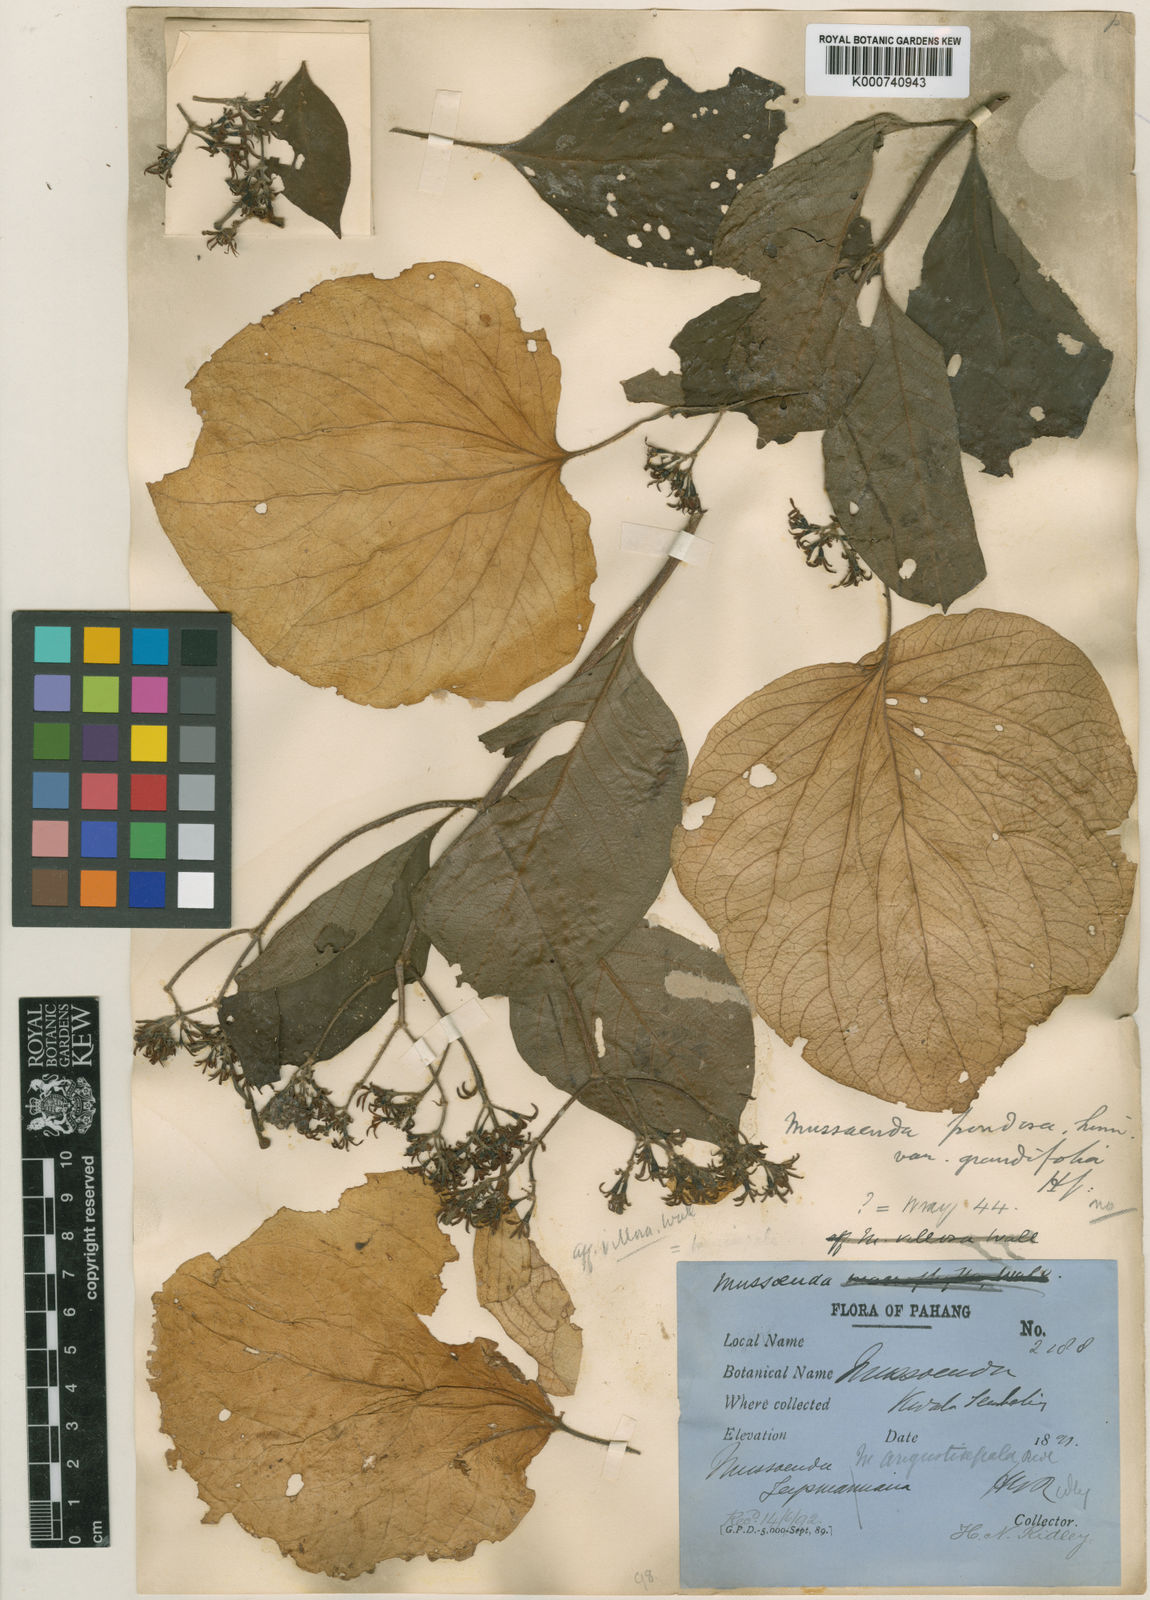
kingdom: Plantae
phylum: Tracheophyta
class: Magnoliopsida
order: Gentianales
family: Rubiaceae
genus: Mussaenda
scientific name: Mussaenda angustisepala
